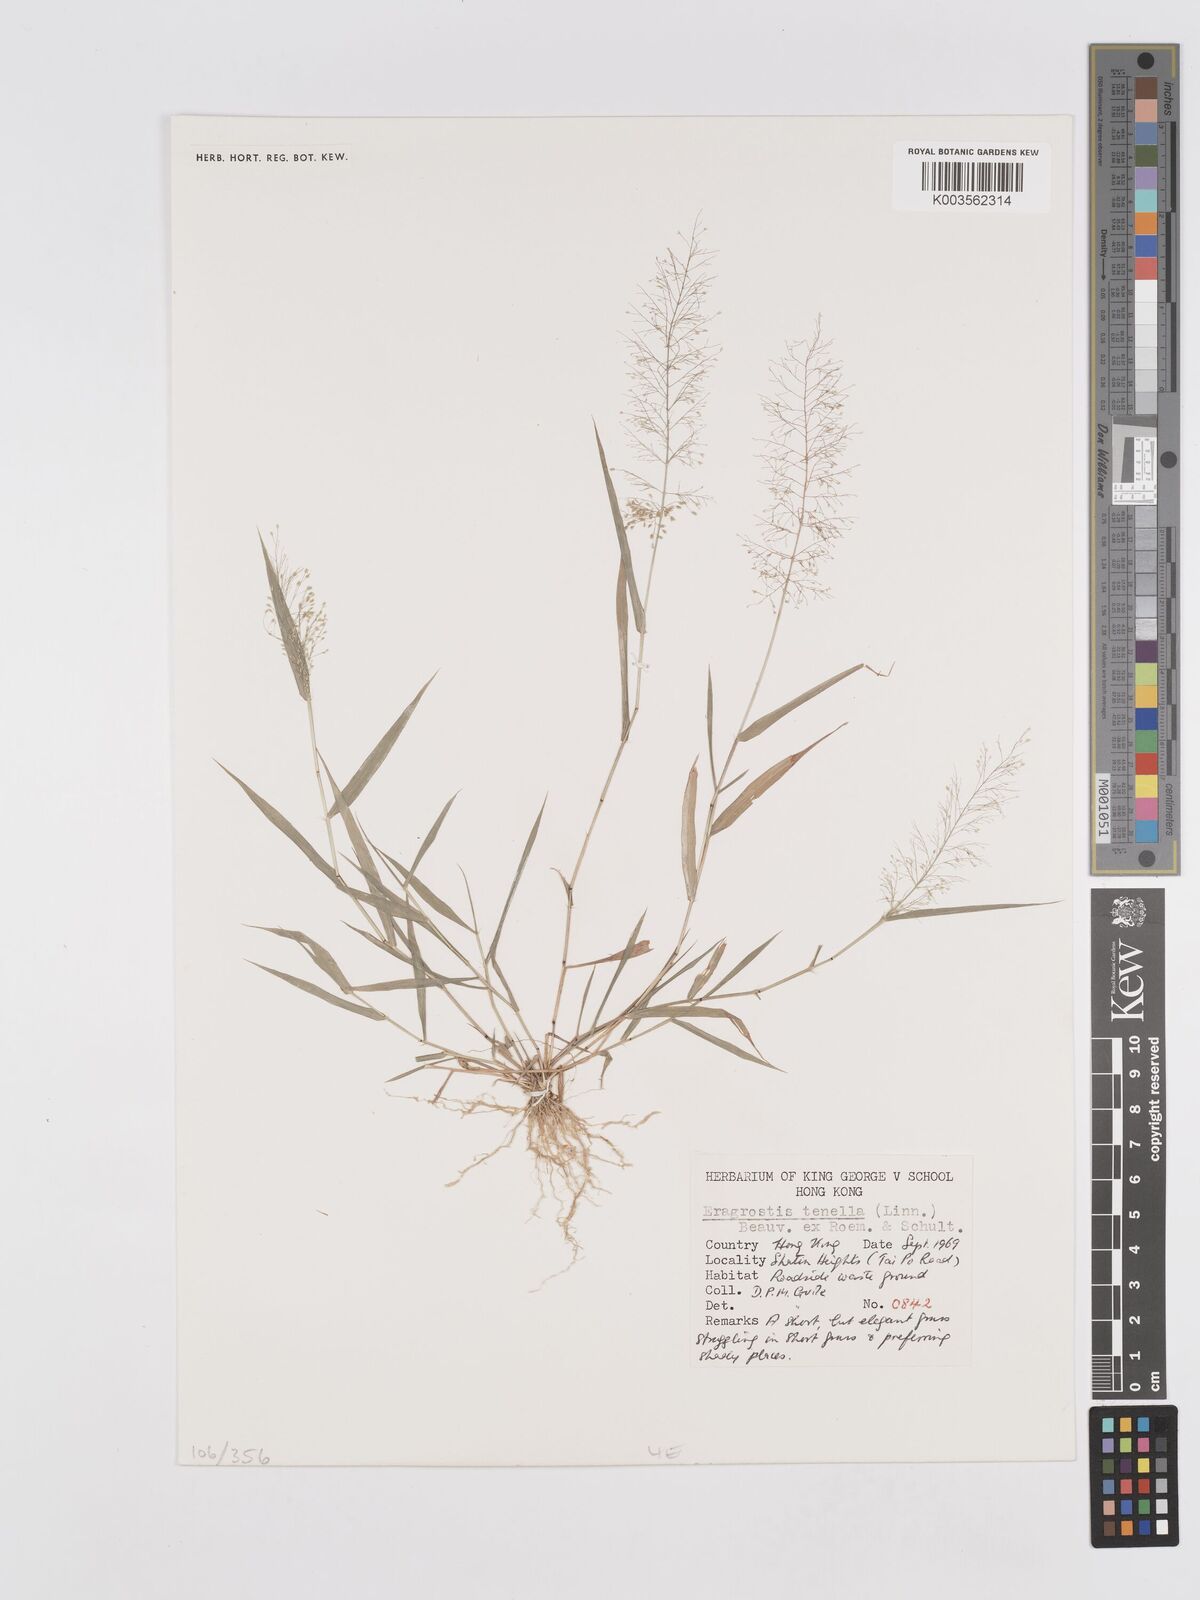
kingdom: Plantae
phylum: Tracheophyta
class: Liliopsida
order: Poales
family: Poaceae
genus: Eragrostis
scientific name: Eragrostis tenella
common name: Japanese lovegrass
